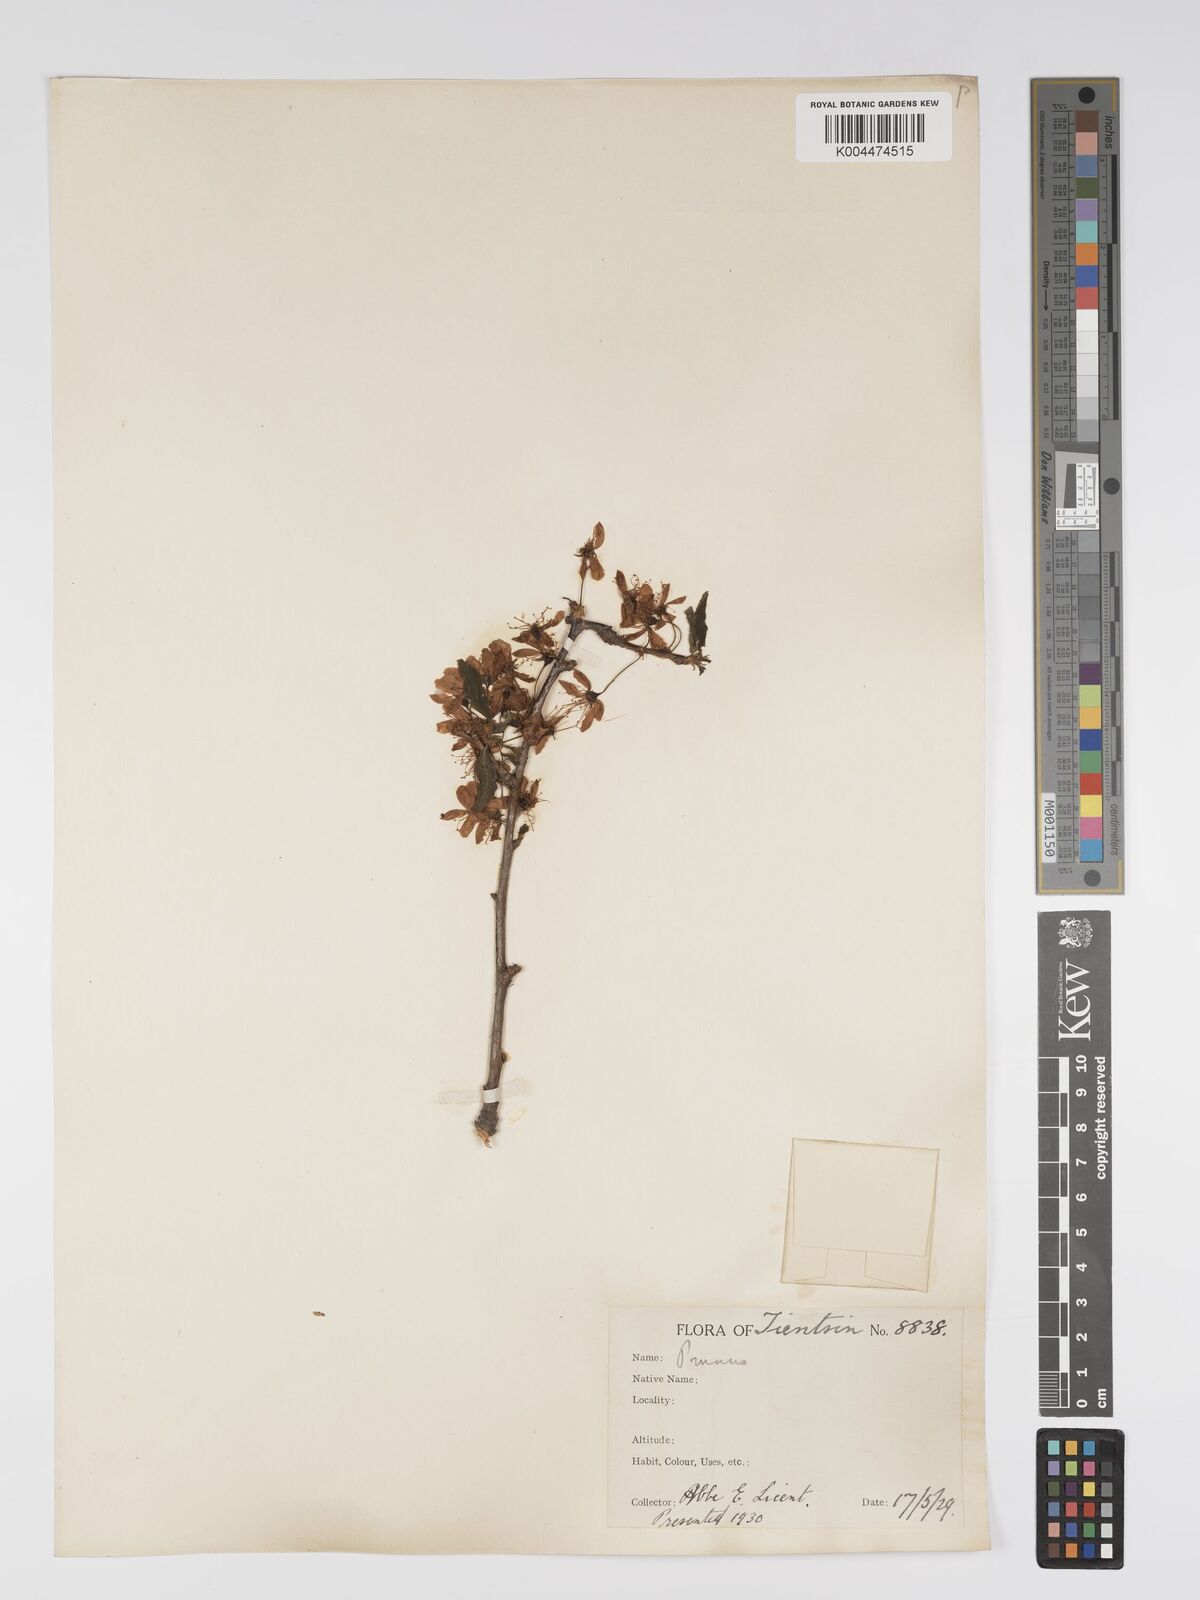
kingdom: Plantae
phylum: Tracheophyta
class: Magnoliopsida
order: Rosales
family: Rosaceae
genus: Prunus
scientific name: Prunus
